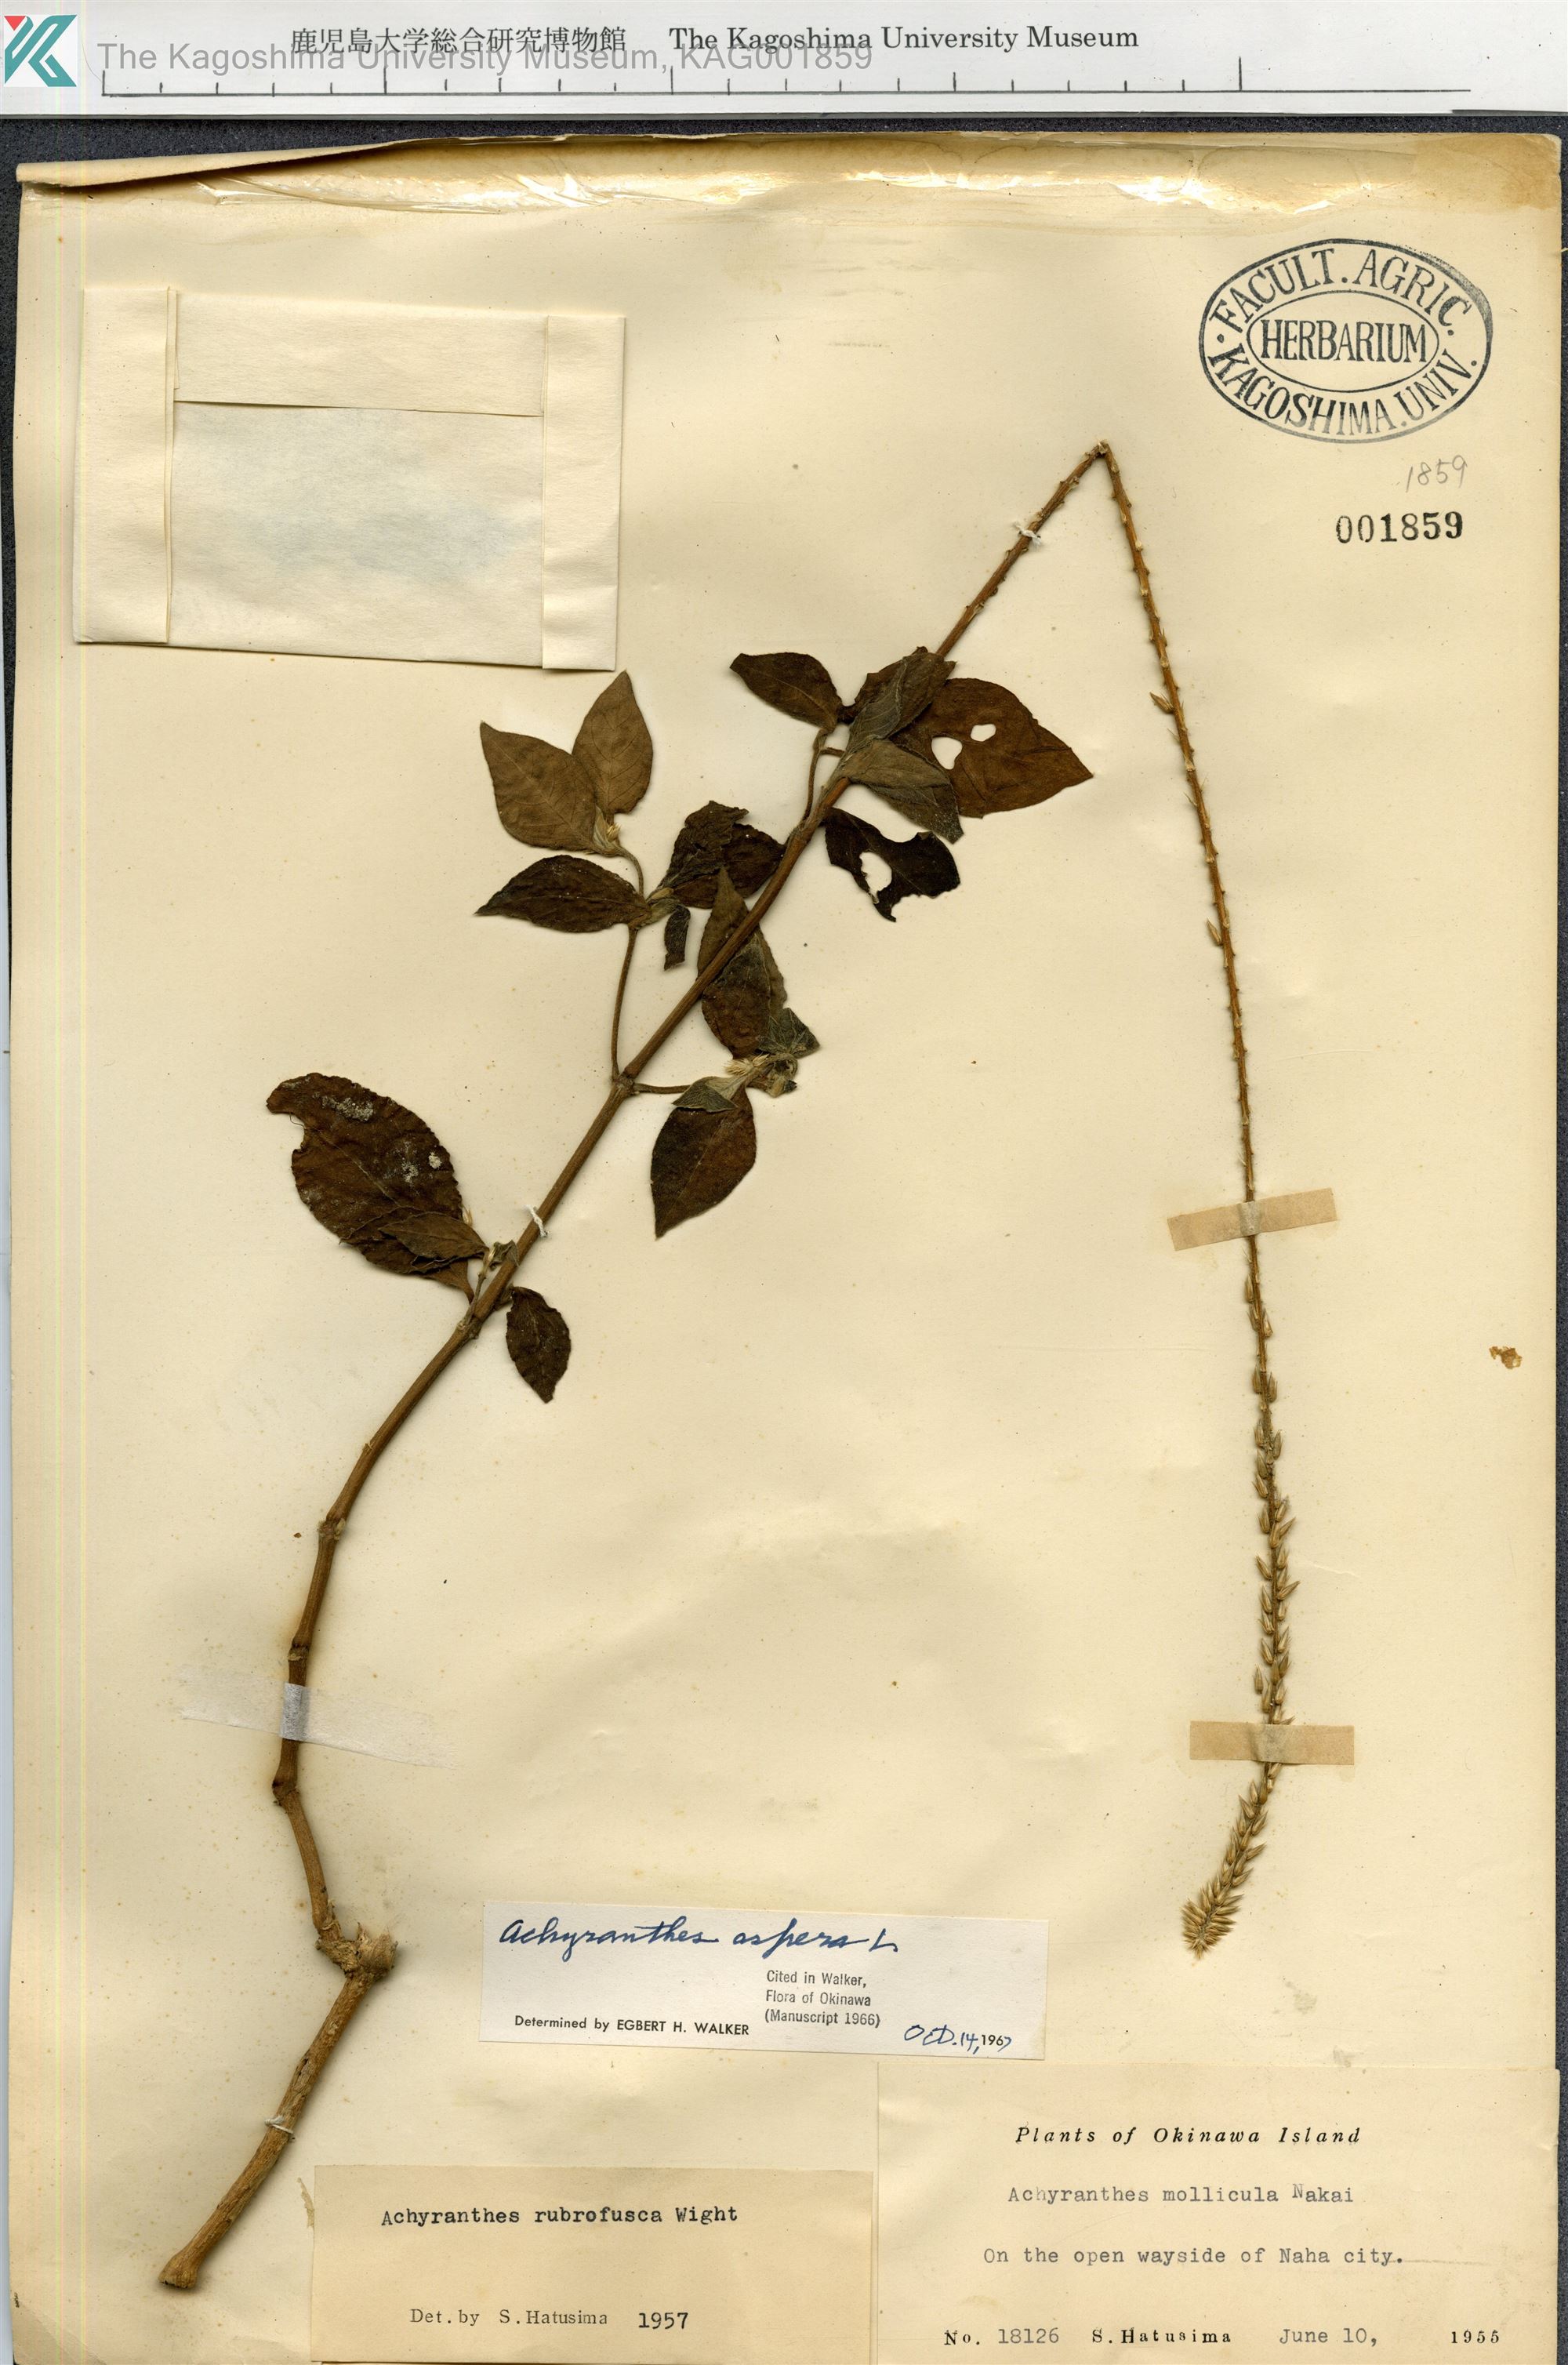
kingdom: Plantae
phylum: Tracheophyta
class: Magnoliopsida
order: Caryophyllales
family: Amaranthaceae
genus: Achyranthes
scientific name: Achyranthes aspera
